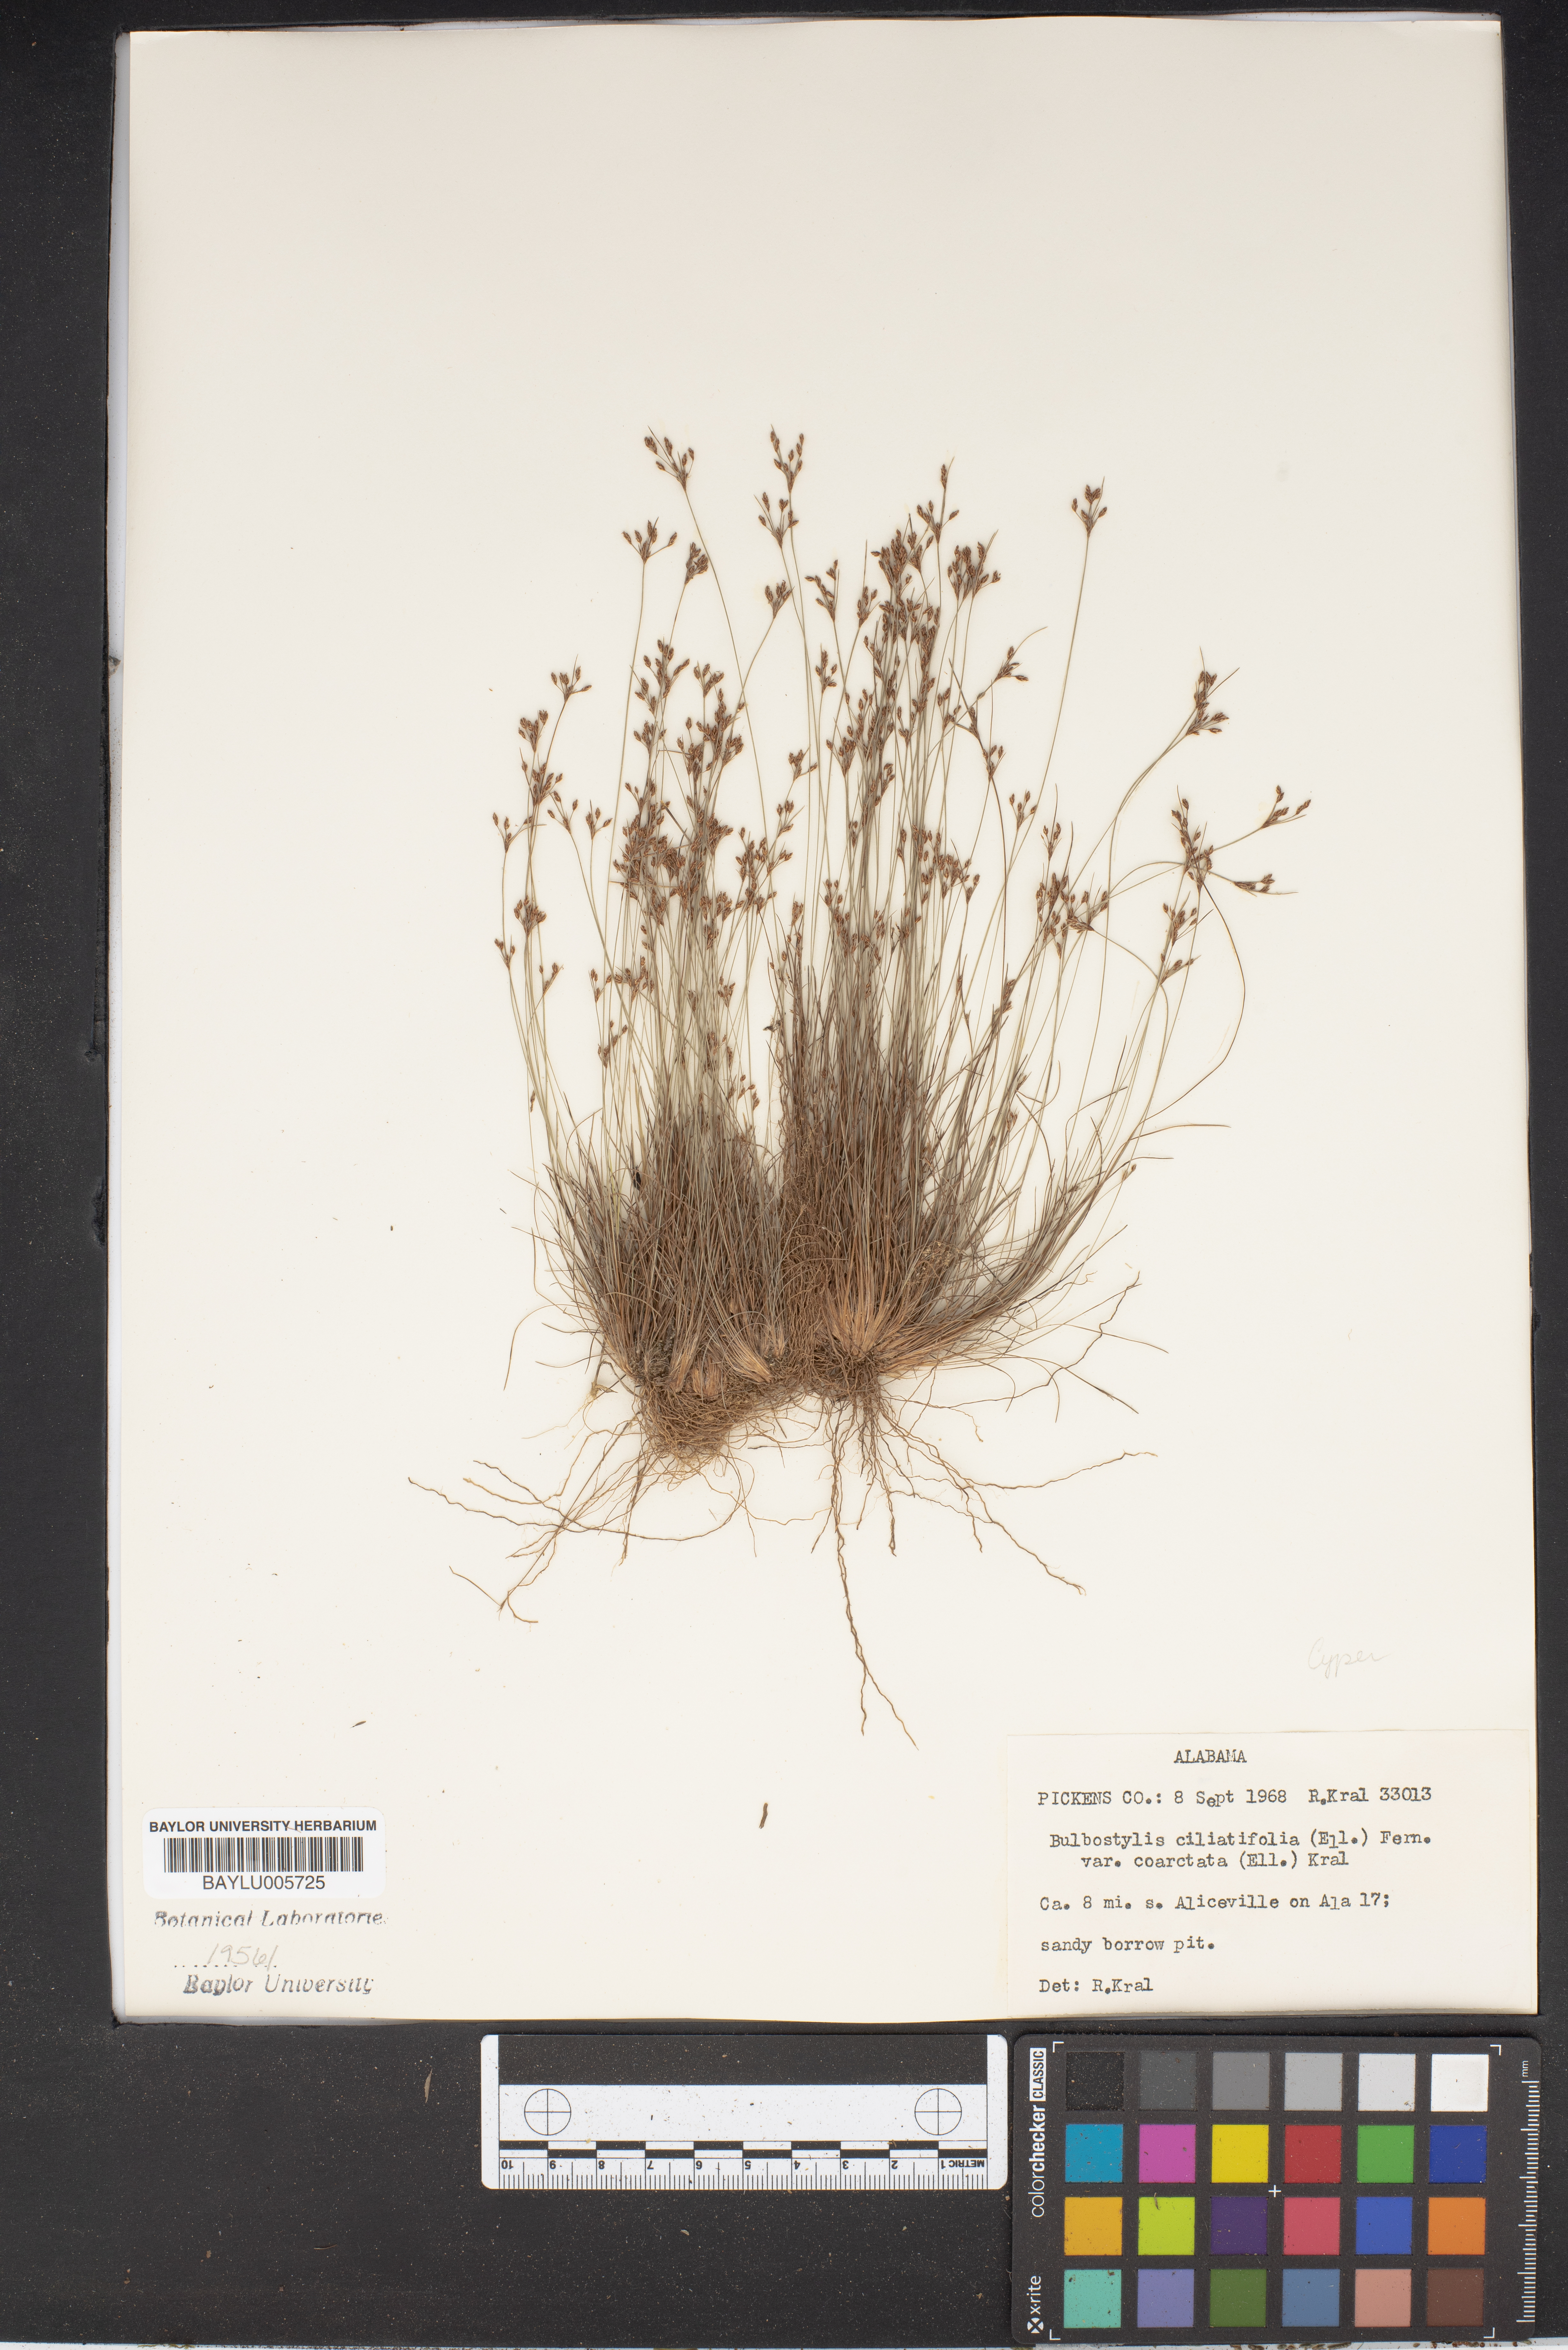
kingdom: Plantae
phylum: Tracheophyta
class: Liliopsida
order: Poales
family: Cyperaceae
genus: Bulbostylis
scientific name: Bulbostylis ciliatifolia
